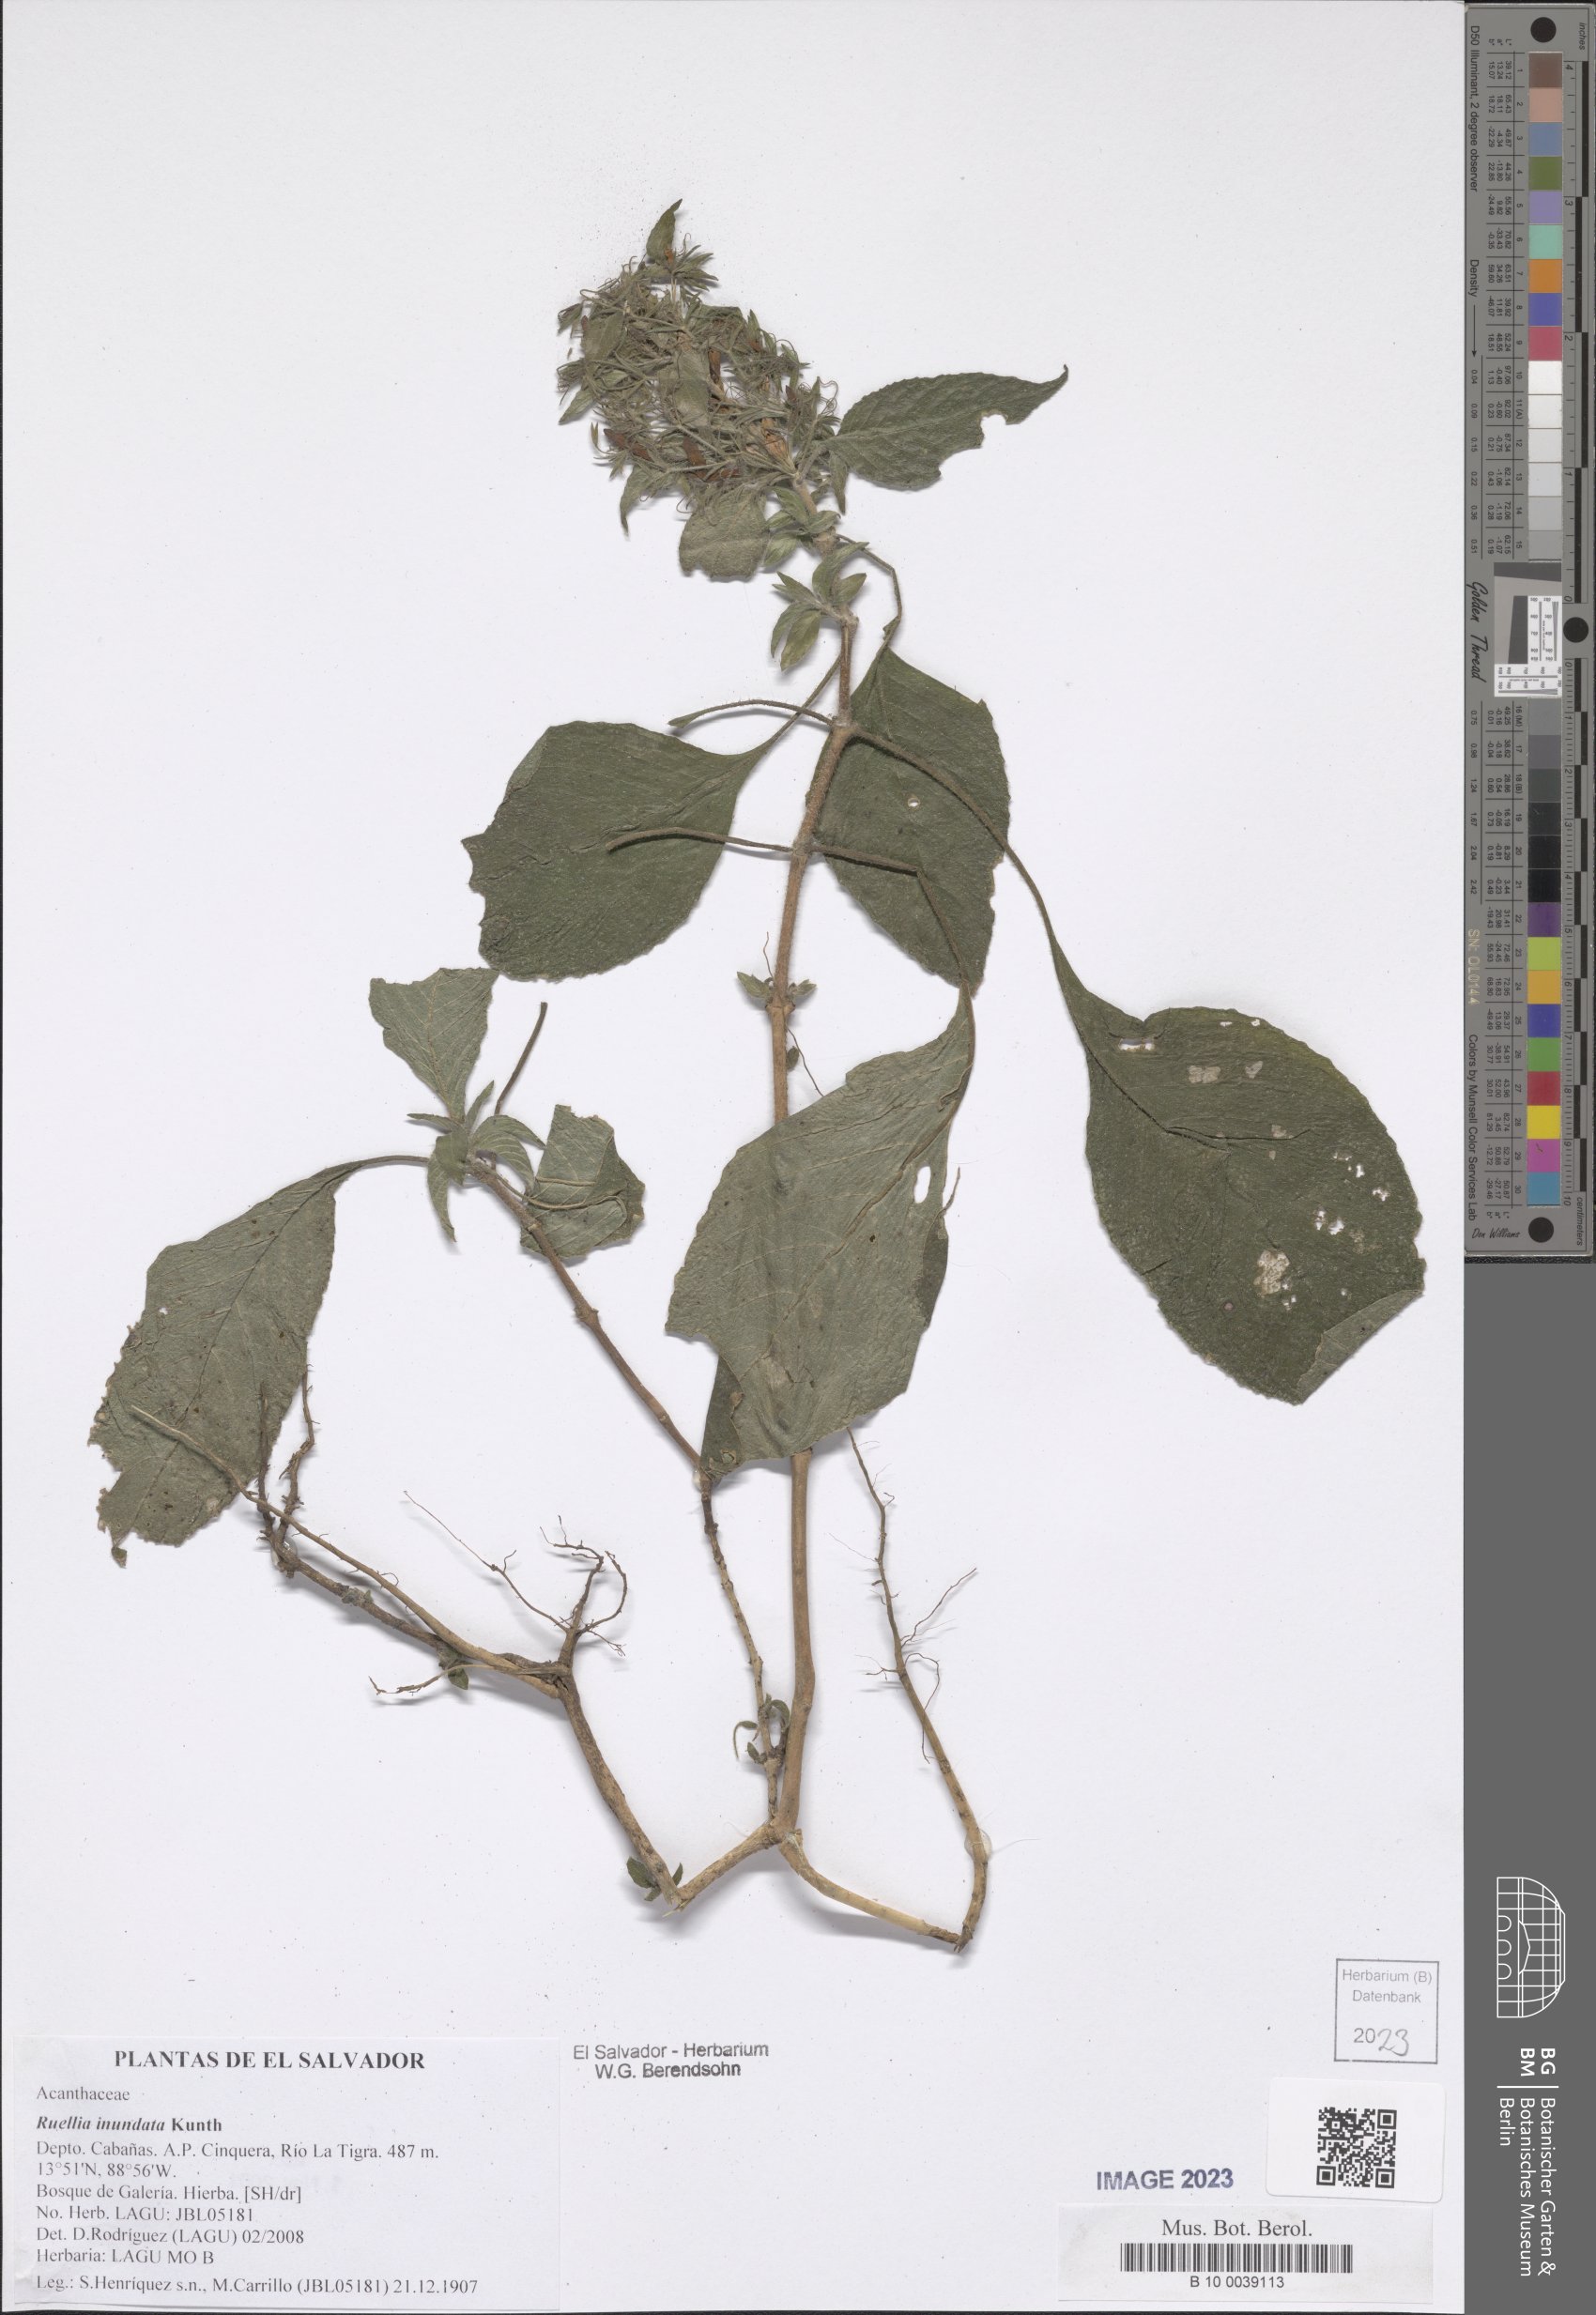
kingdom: Plantae
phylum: Tracheophyta
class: Magnoliopsida
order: Lamiales
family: Acanthaceae
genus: Ruellia
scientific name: Ruellia inundata
